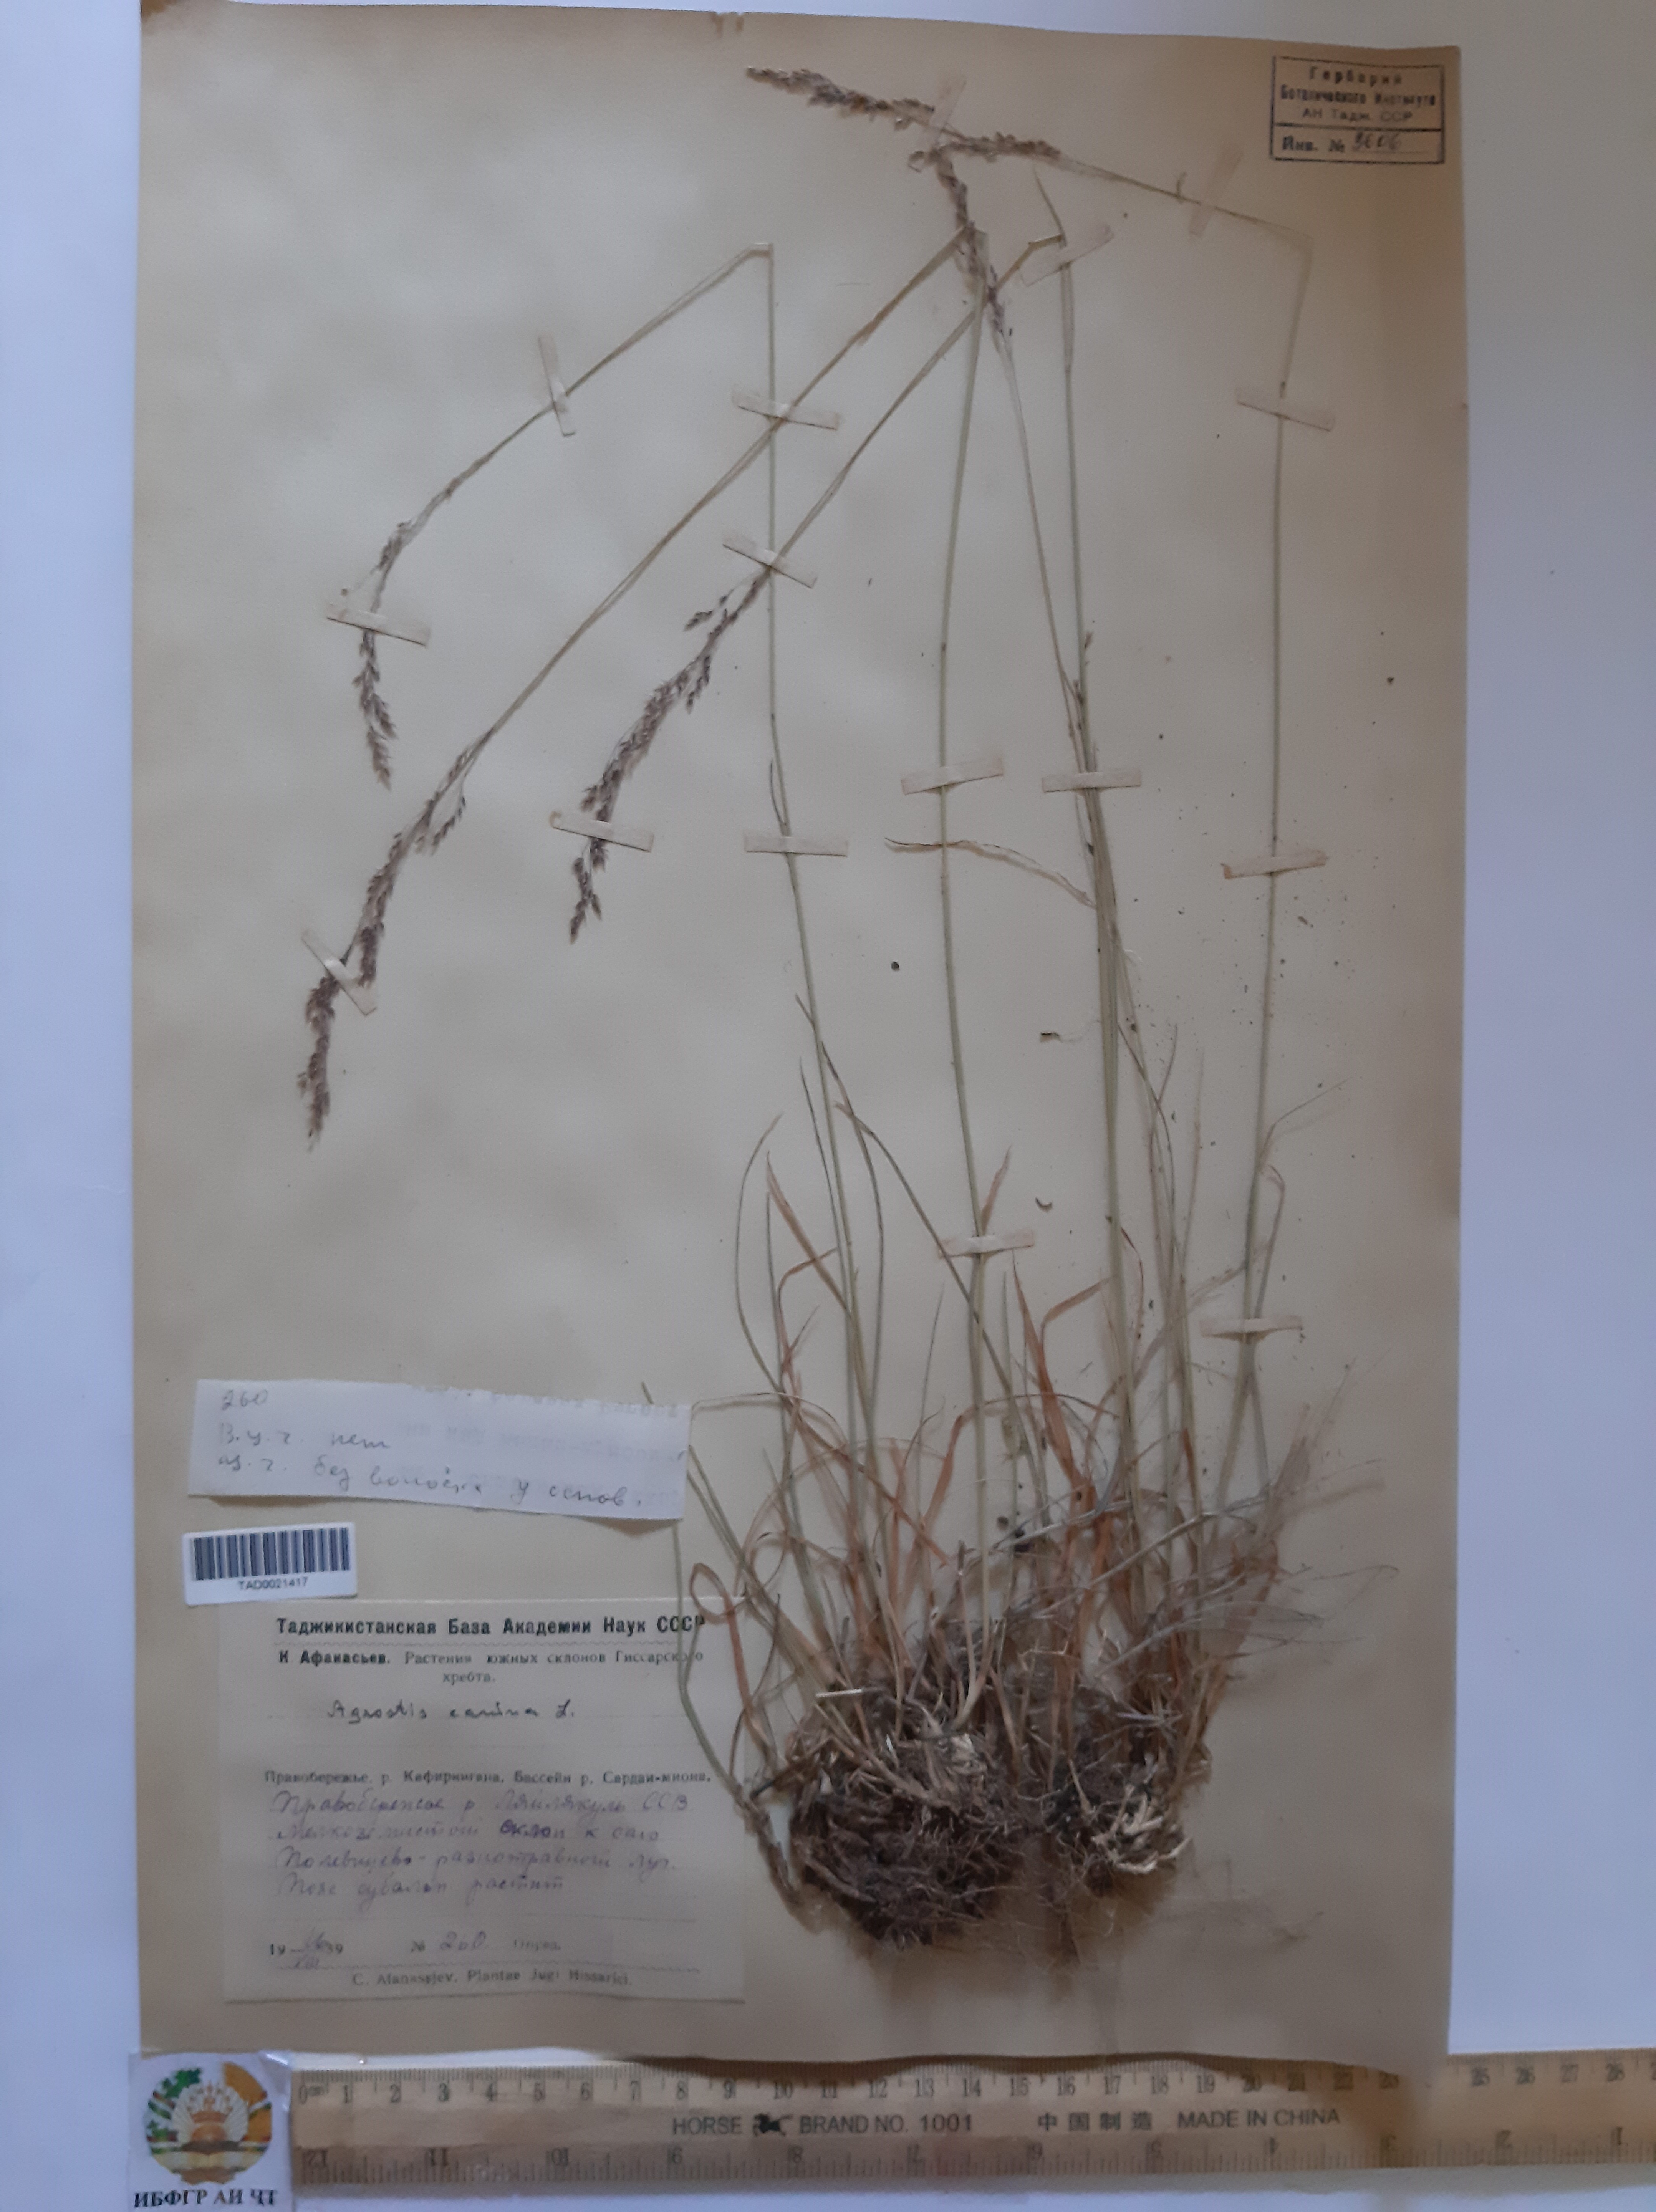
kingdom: Plantae
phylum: Tracheophyta
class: Liliopsida
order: Poales
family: Poaceae
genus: Agrostis
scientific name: Agrostis canina
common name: Velvet bent
